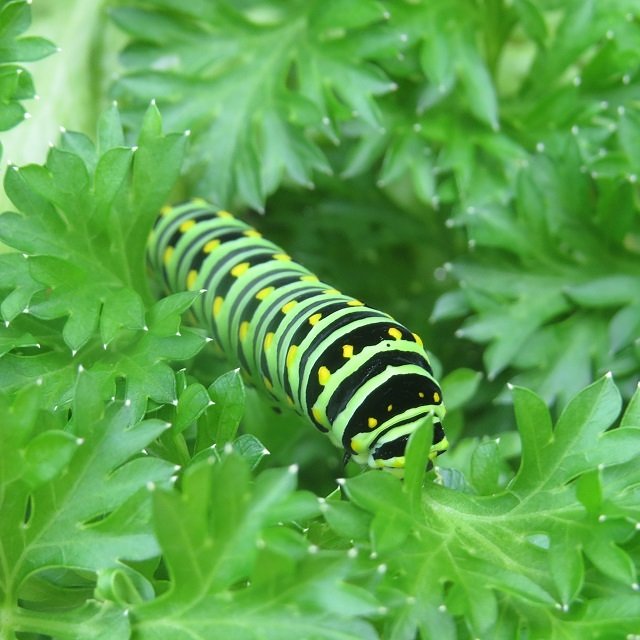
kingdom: Animalia
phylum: Arthropoda
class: Insecta
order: Lepidoptera
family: Papilionidae
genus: Papilio
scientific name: Papilio polyxenes
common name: Black Swallowtail
